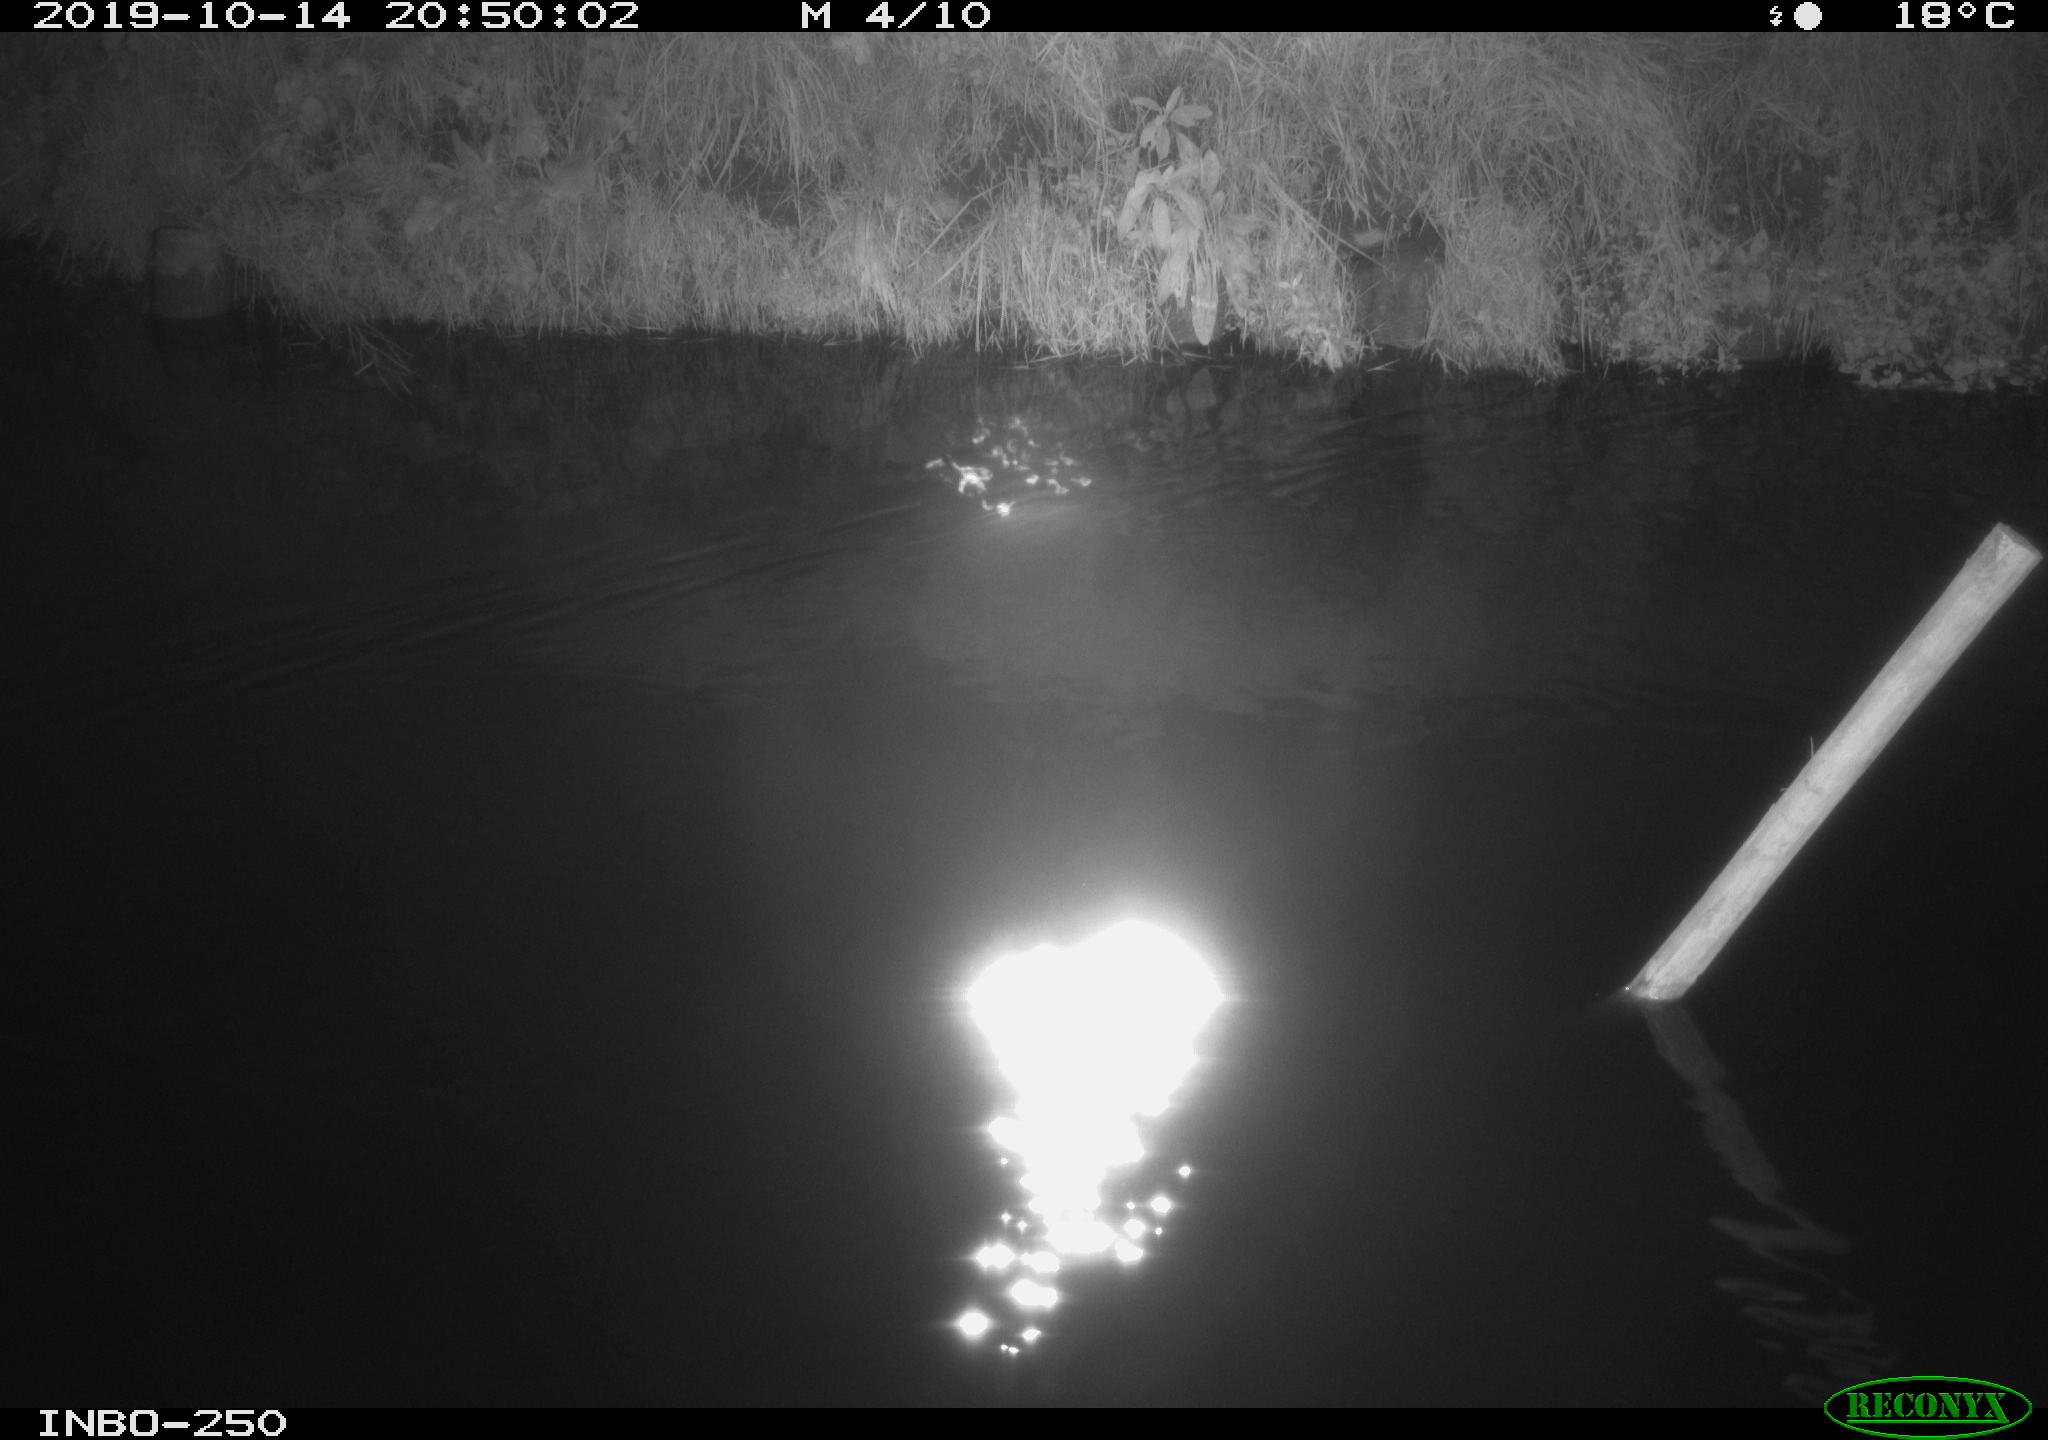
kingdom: Animalia
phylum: Chordata
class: Aves
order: Anseriformes
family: Anatidae
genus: Anas
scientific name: Anas platyrhynchos
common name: Mallard
